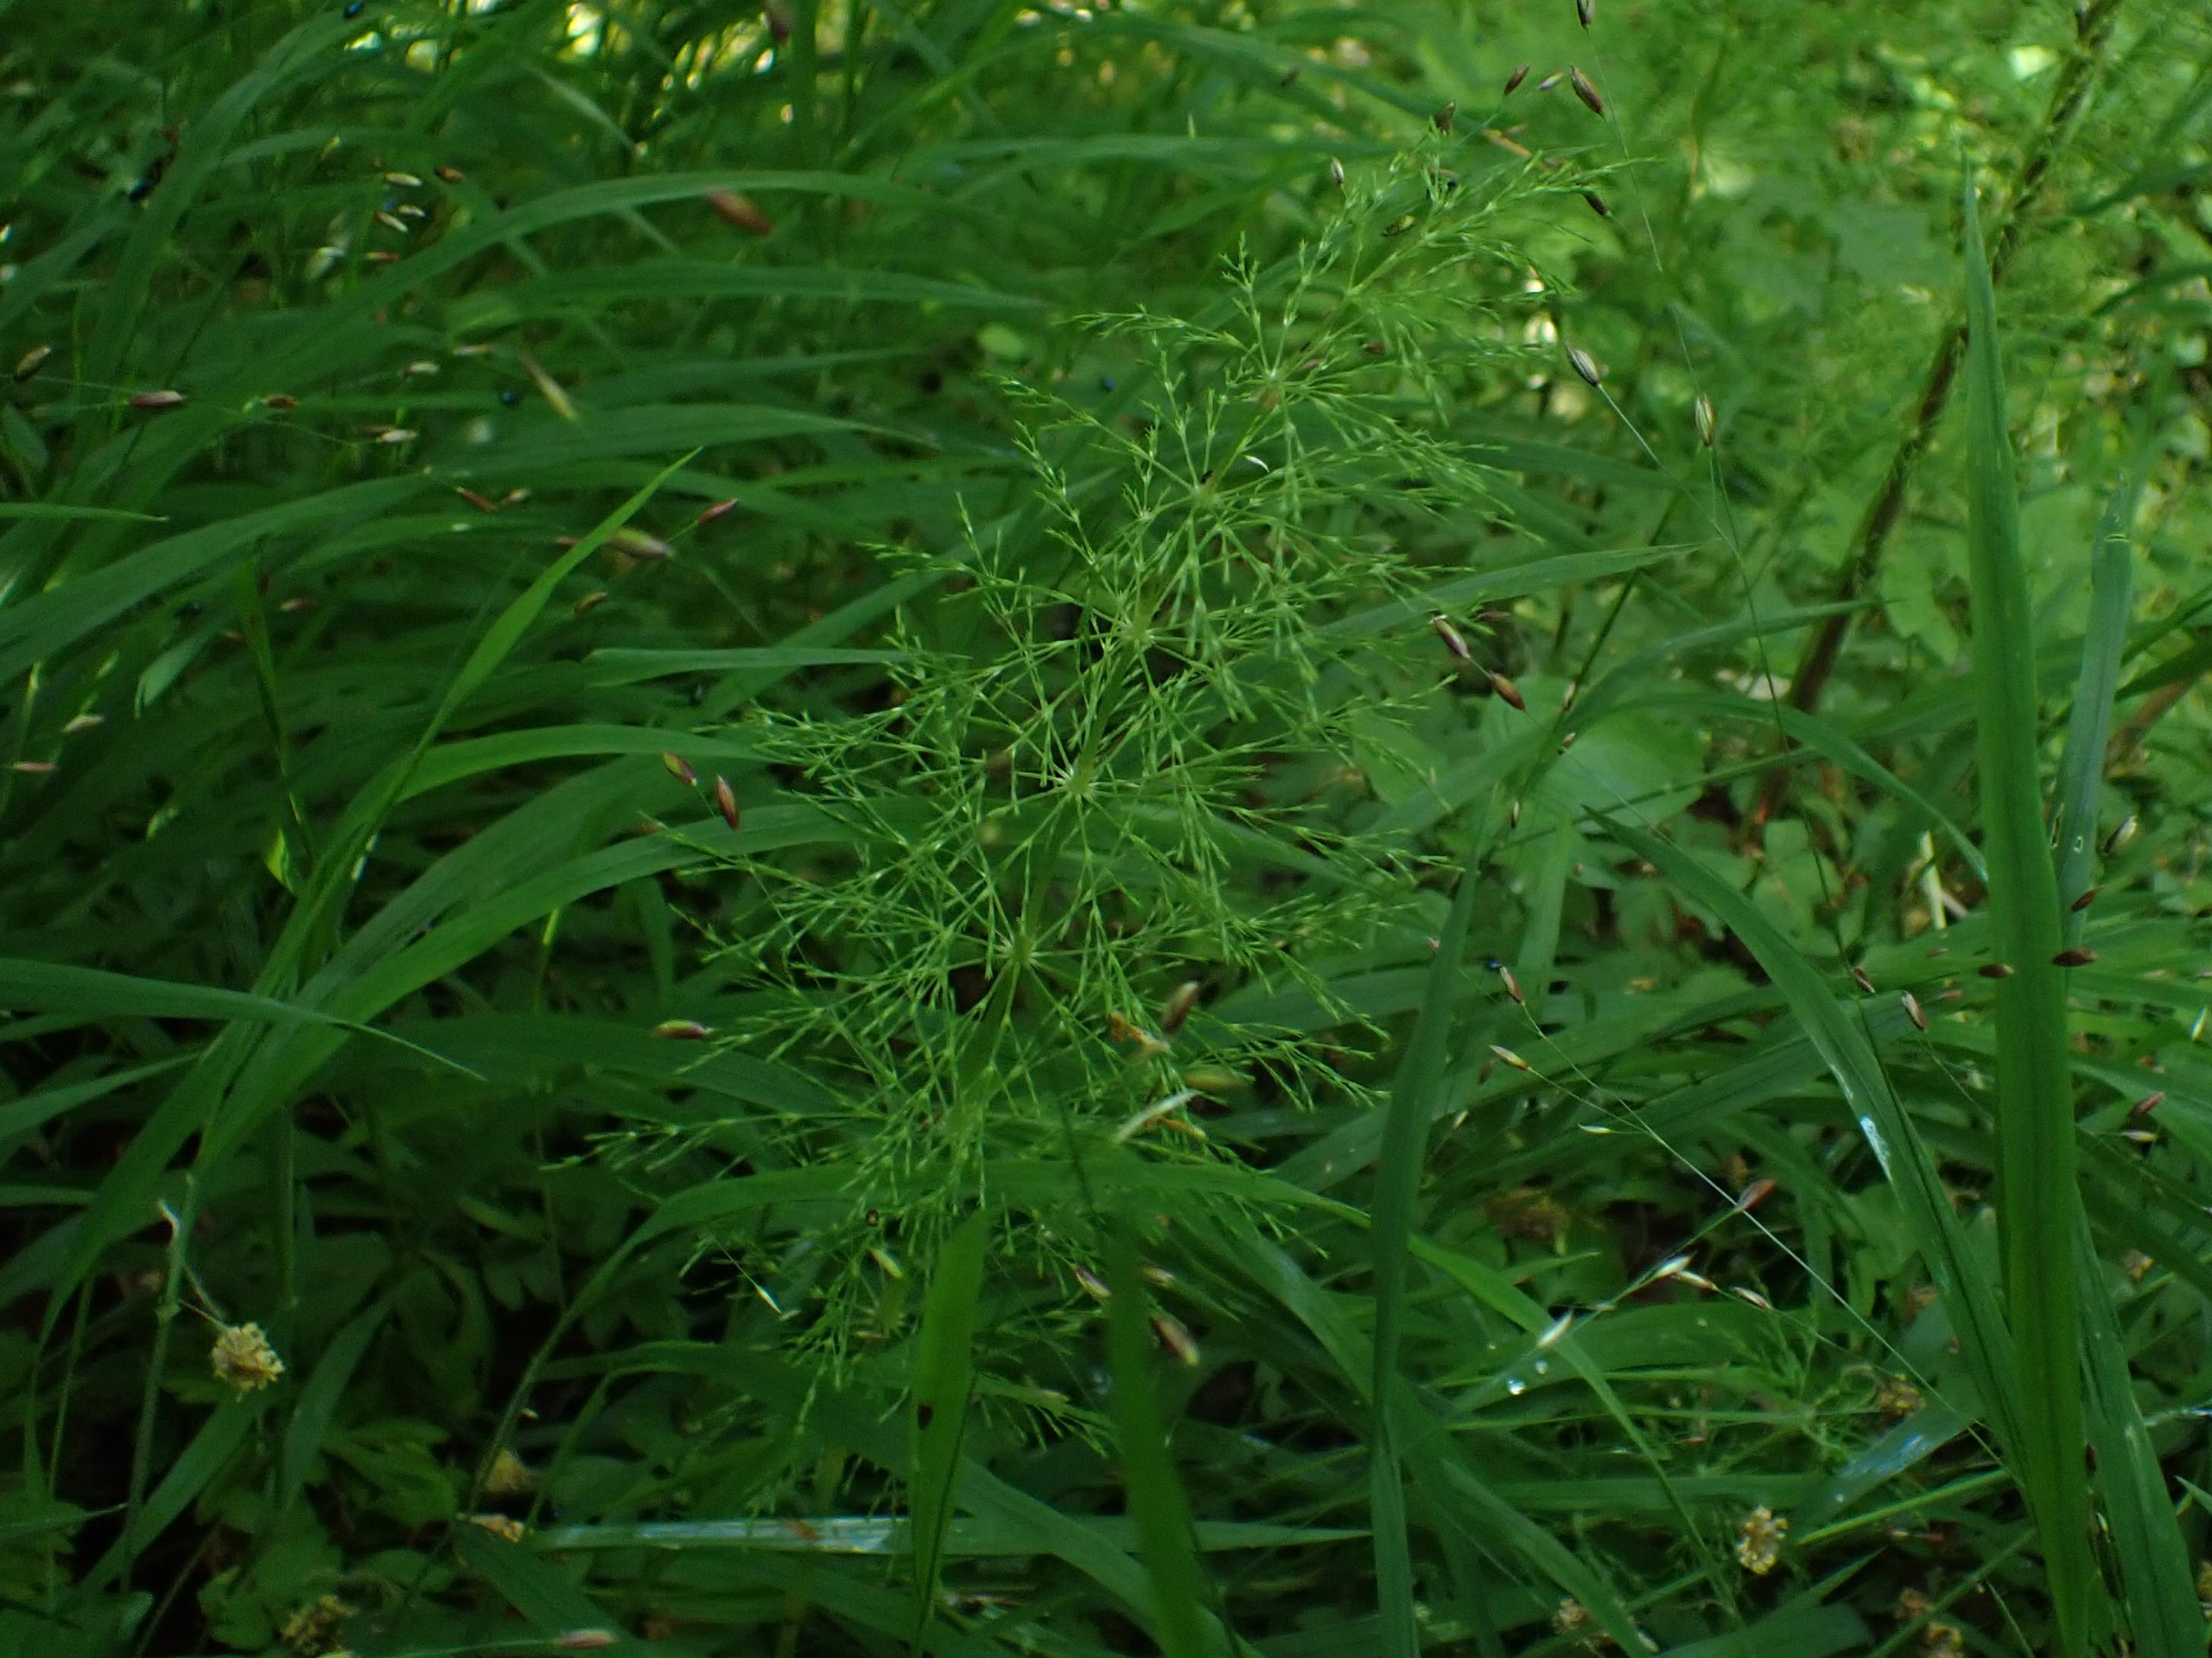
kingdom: Plantae
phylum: Tracheophyta
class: Polypodiopsida
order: Equisetales
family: Equisetaceae
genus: Equisetum
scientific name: Equisetum sylvaticum
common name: Skov-padderok
